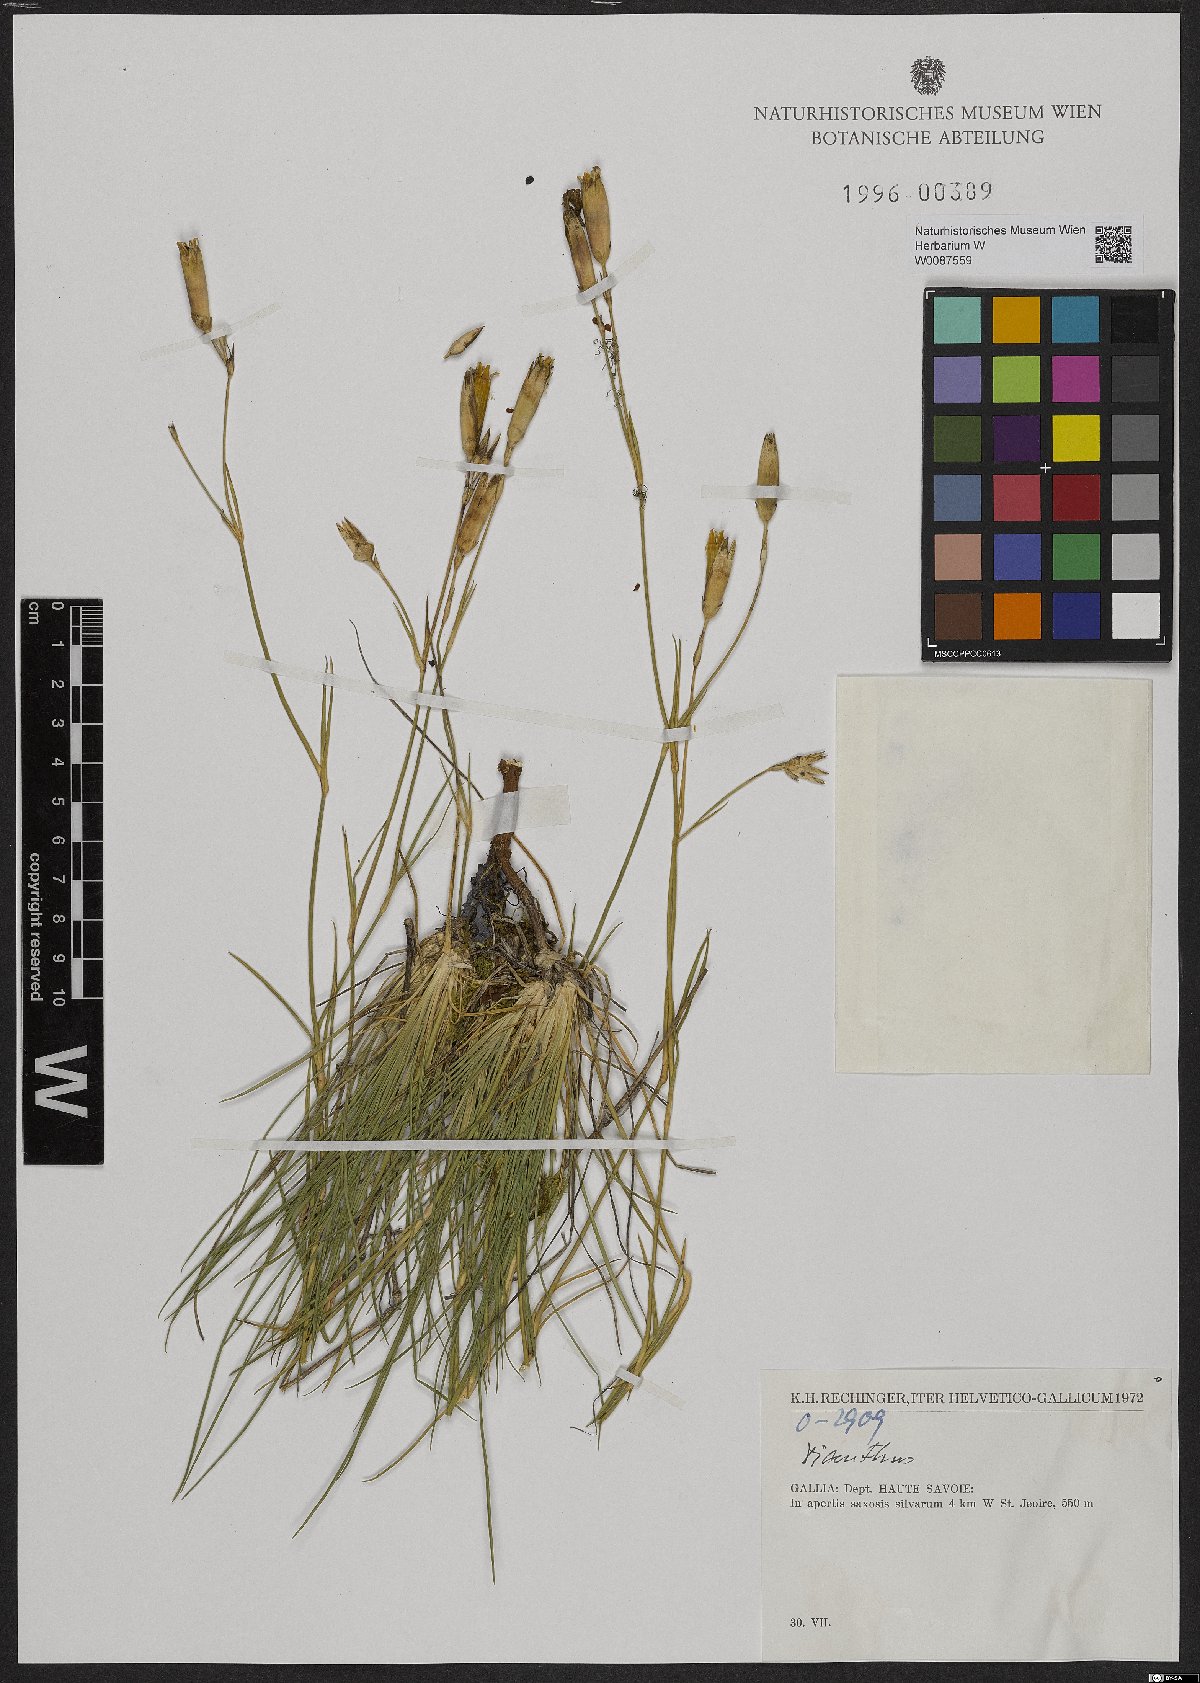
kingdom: Plantae
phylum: Tracheophyta
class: Magnoliopsida
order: Caryophyllales
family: Caryophyllaceae
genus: Dianthus
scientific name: Dianthus
